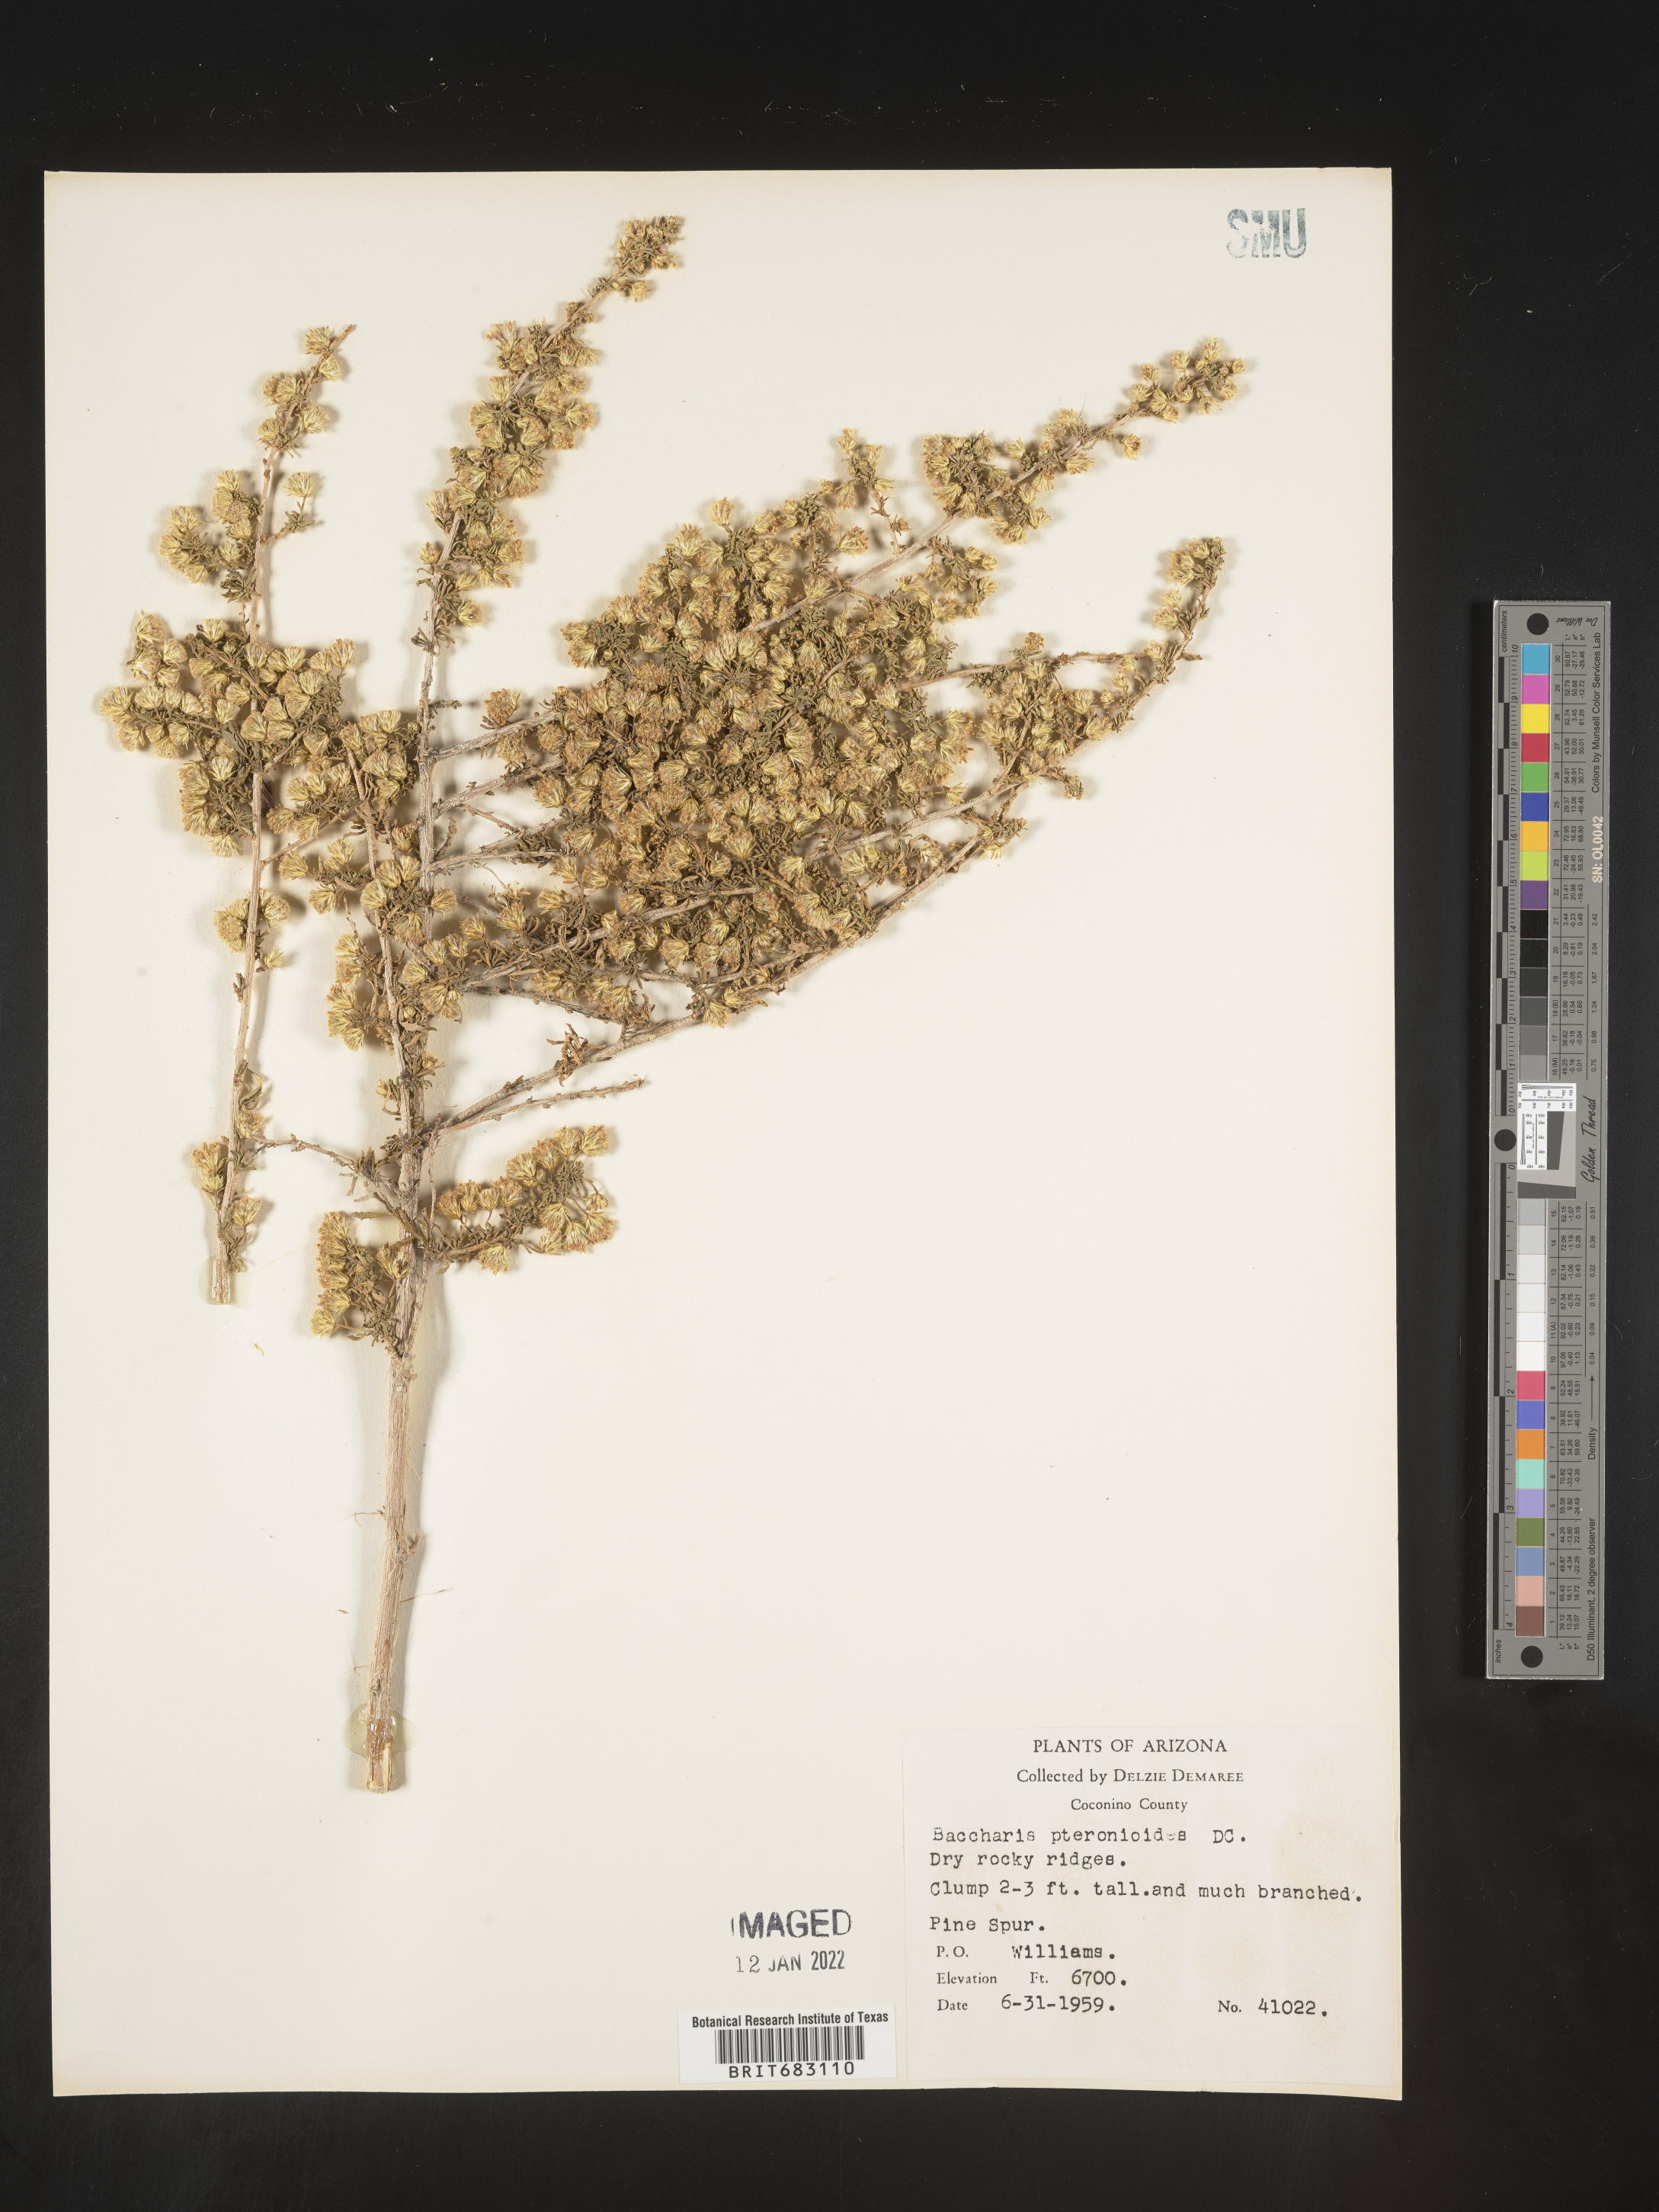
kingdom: Plantae
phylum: Tracheophyta
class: Magnoliopsida
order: Asterales
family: Asteraceae
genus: Baccharis
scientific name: Baccharis pteronioides
